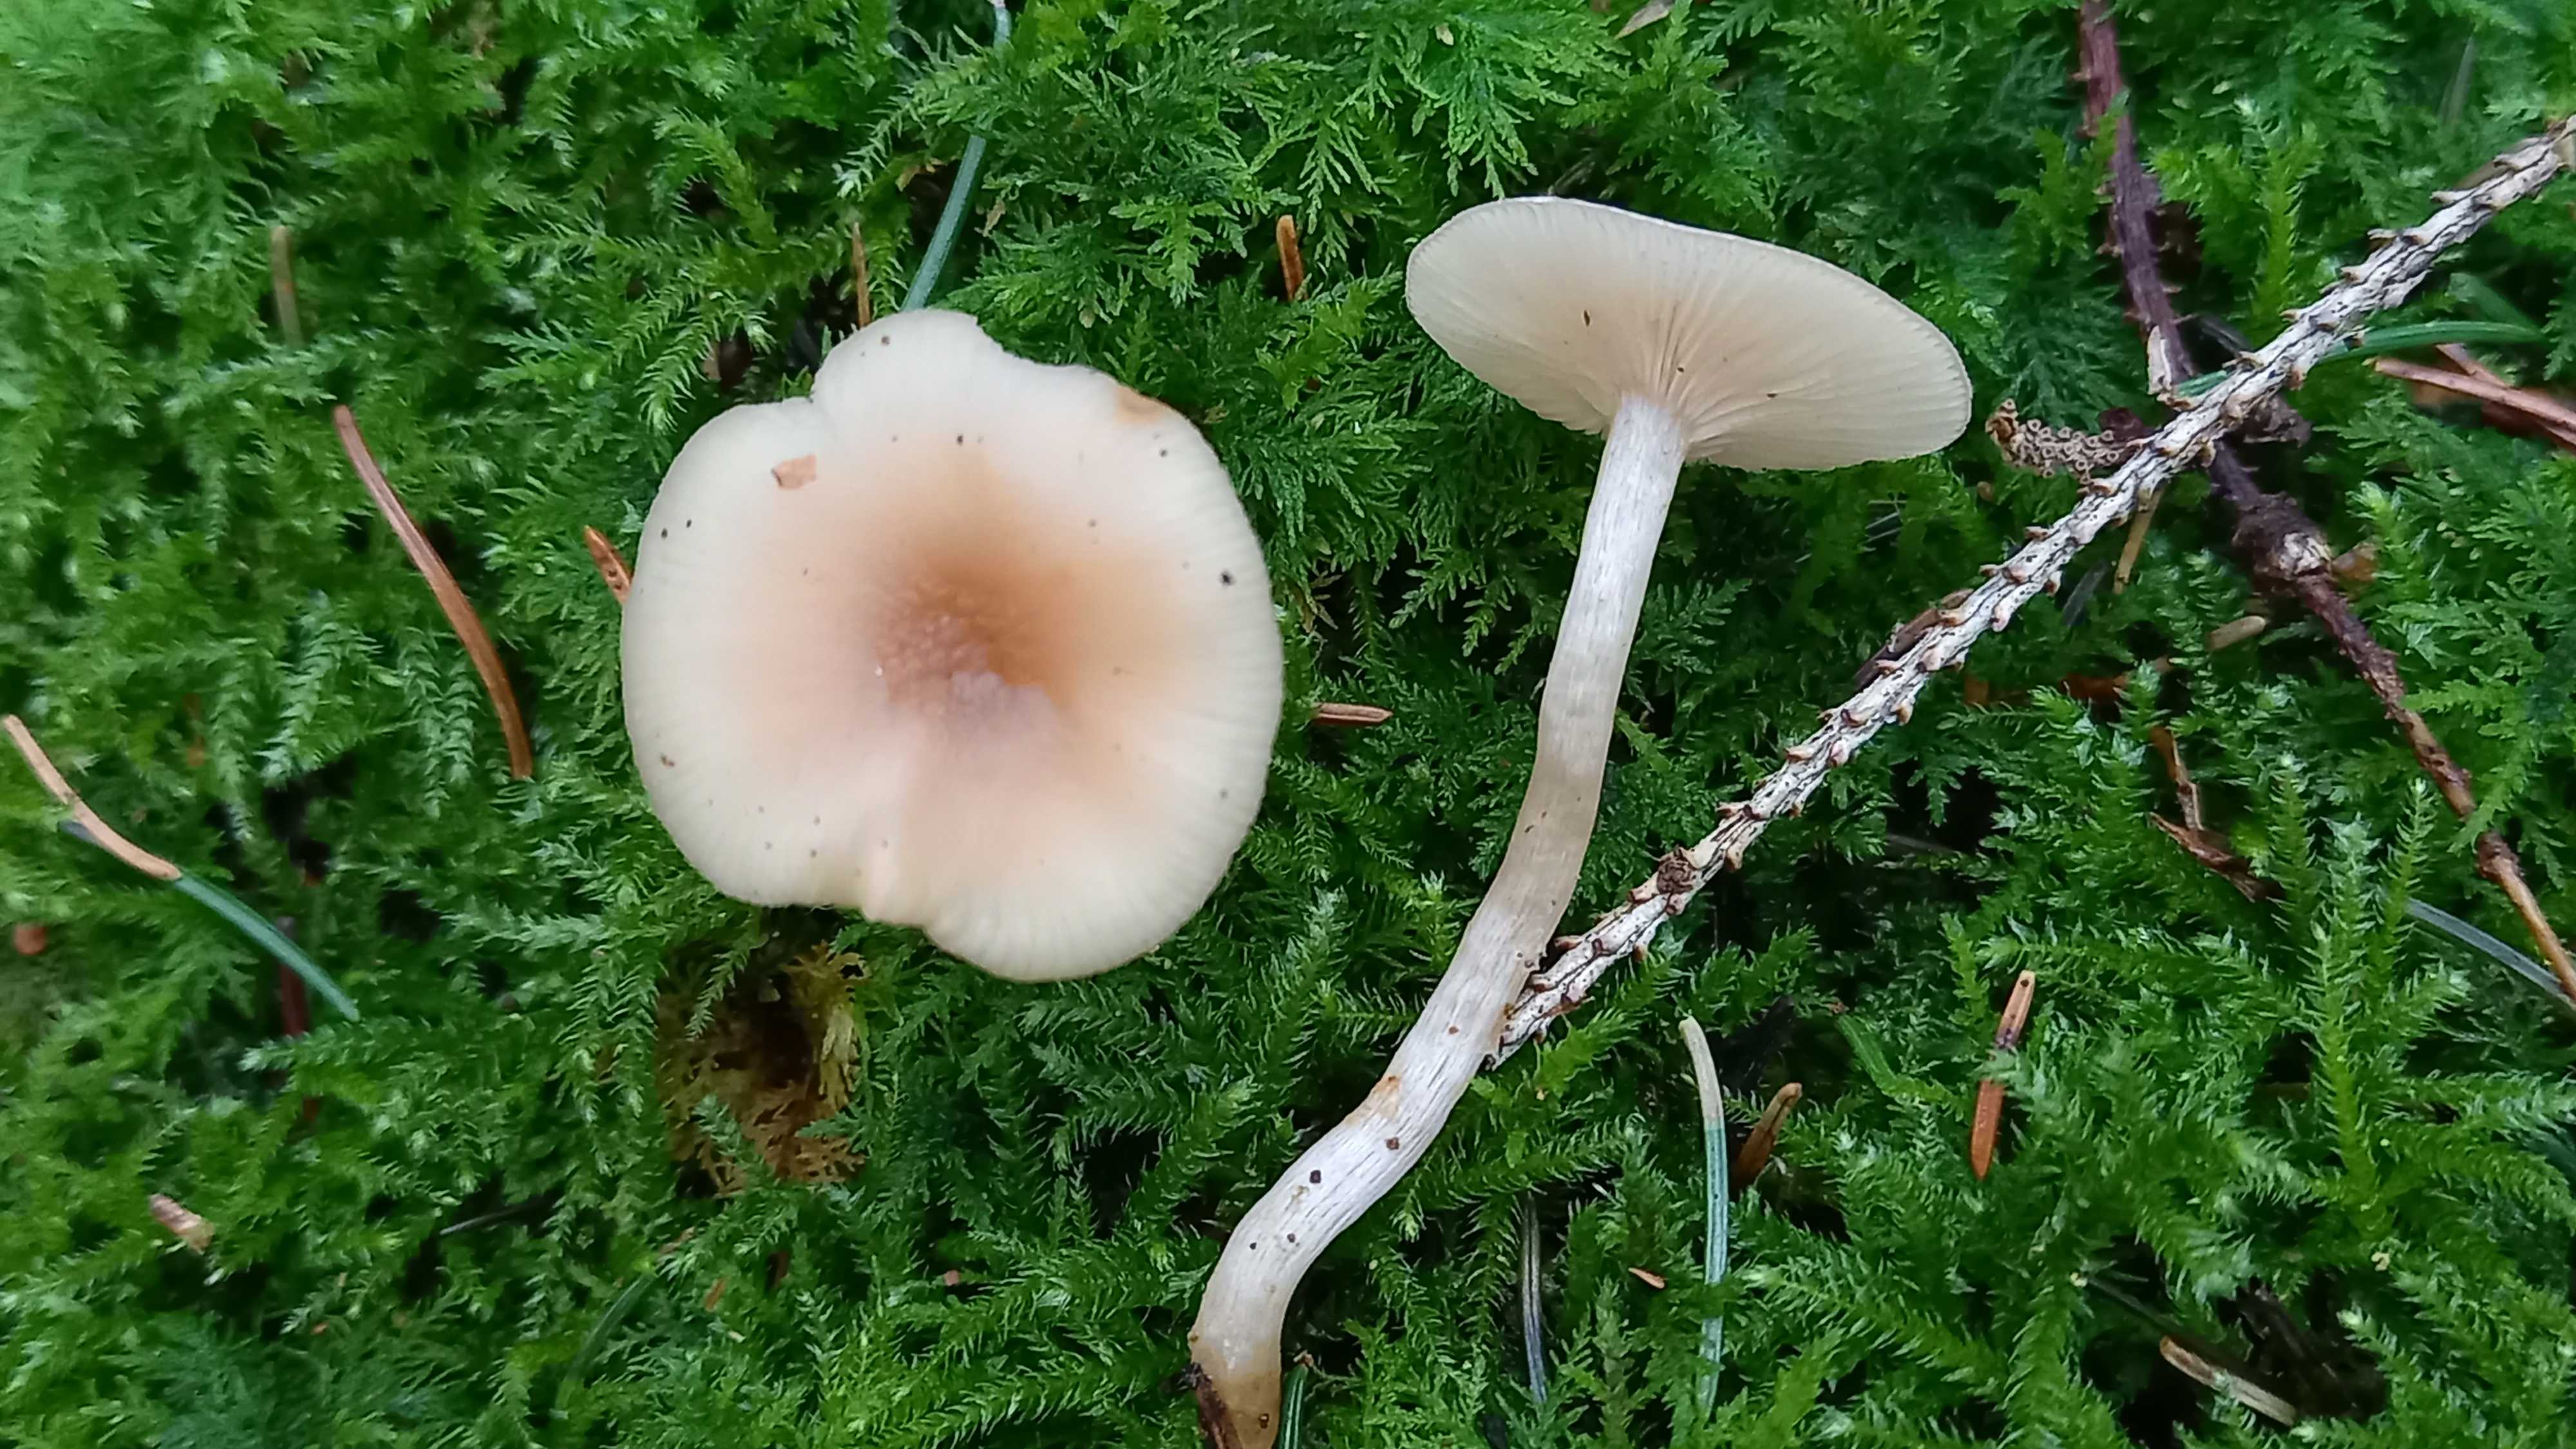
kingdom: Fungi
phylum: Basidiomycota
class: Agaricomycetes
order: Agaricales
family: Tricholomataceae
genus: Clitocybe
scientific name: Clitocybe fragrans
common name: vellugtende tragthat
